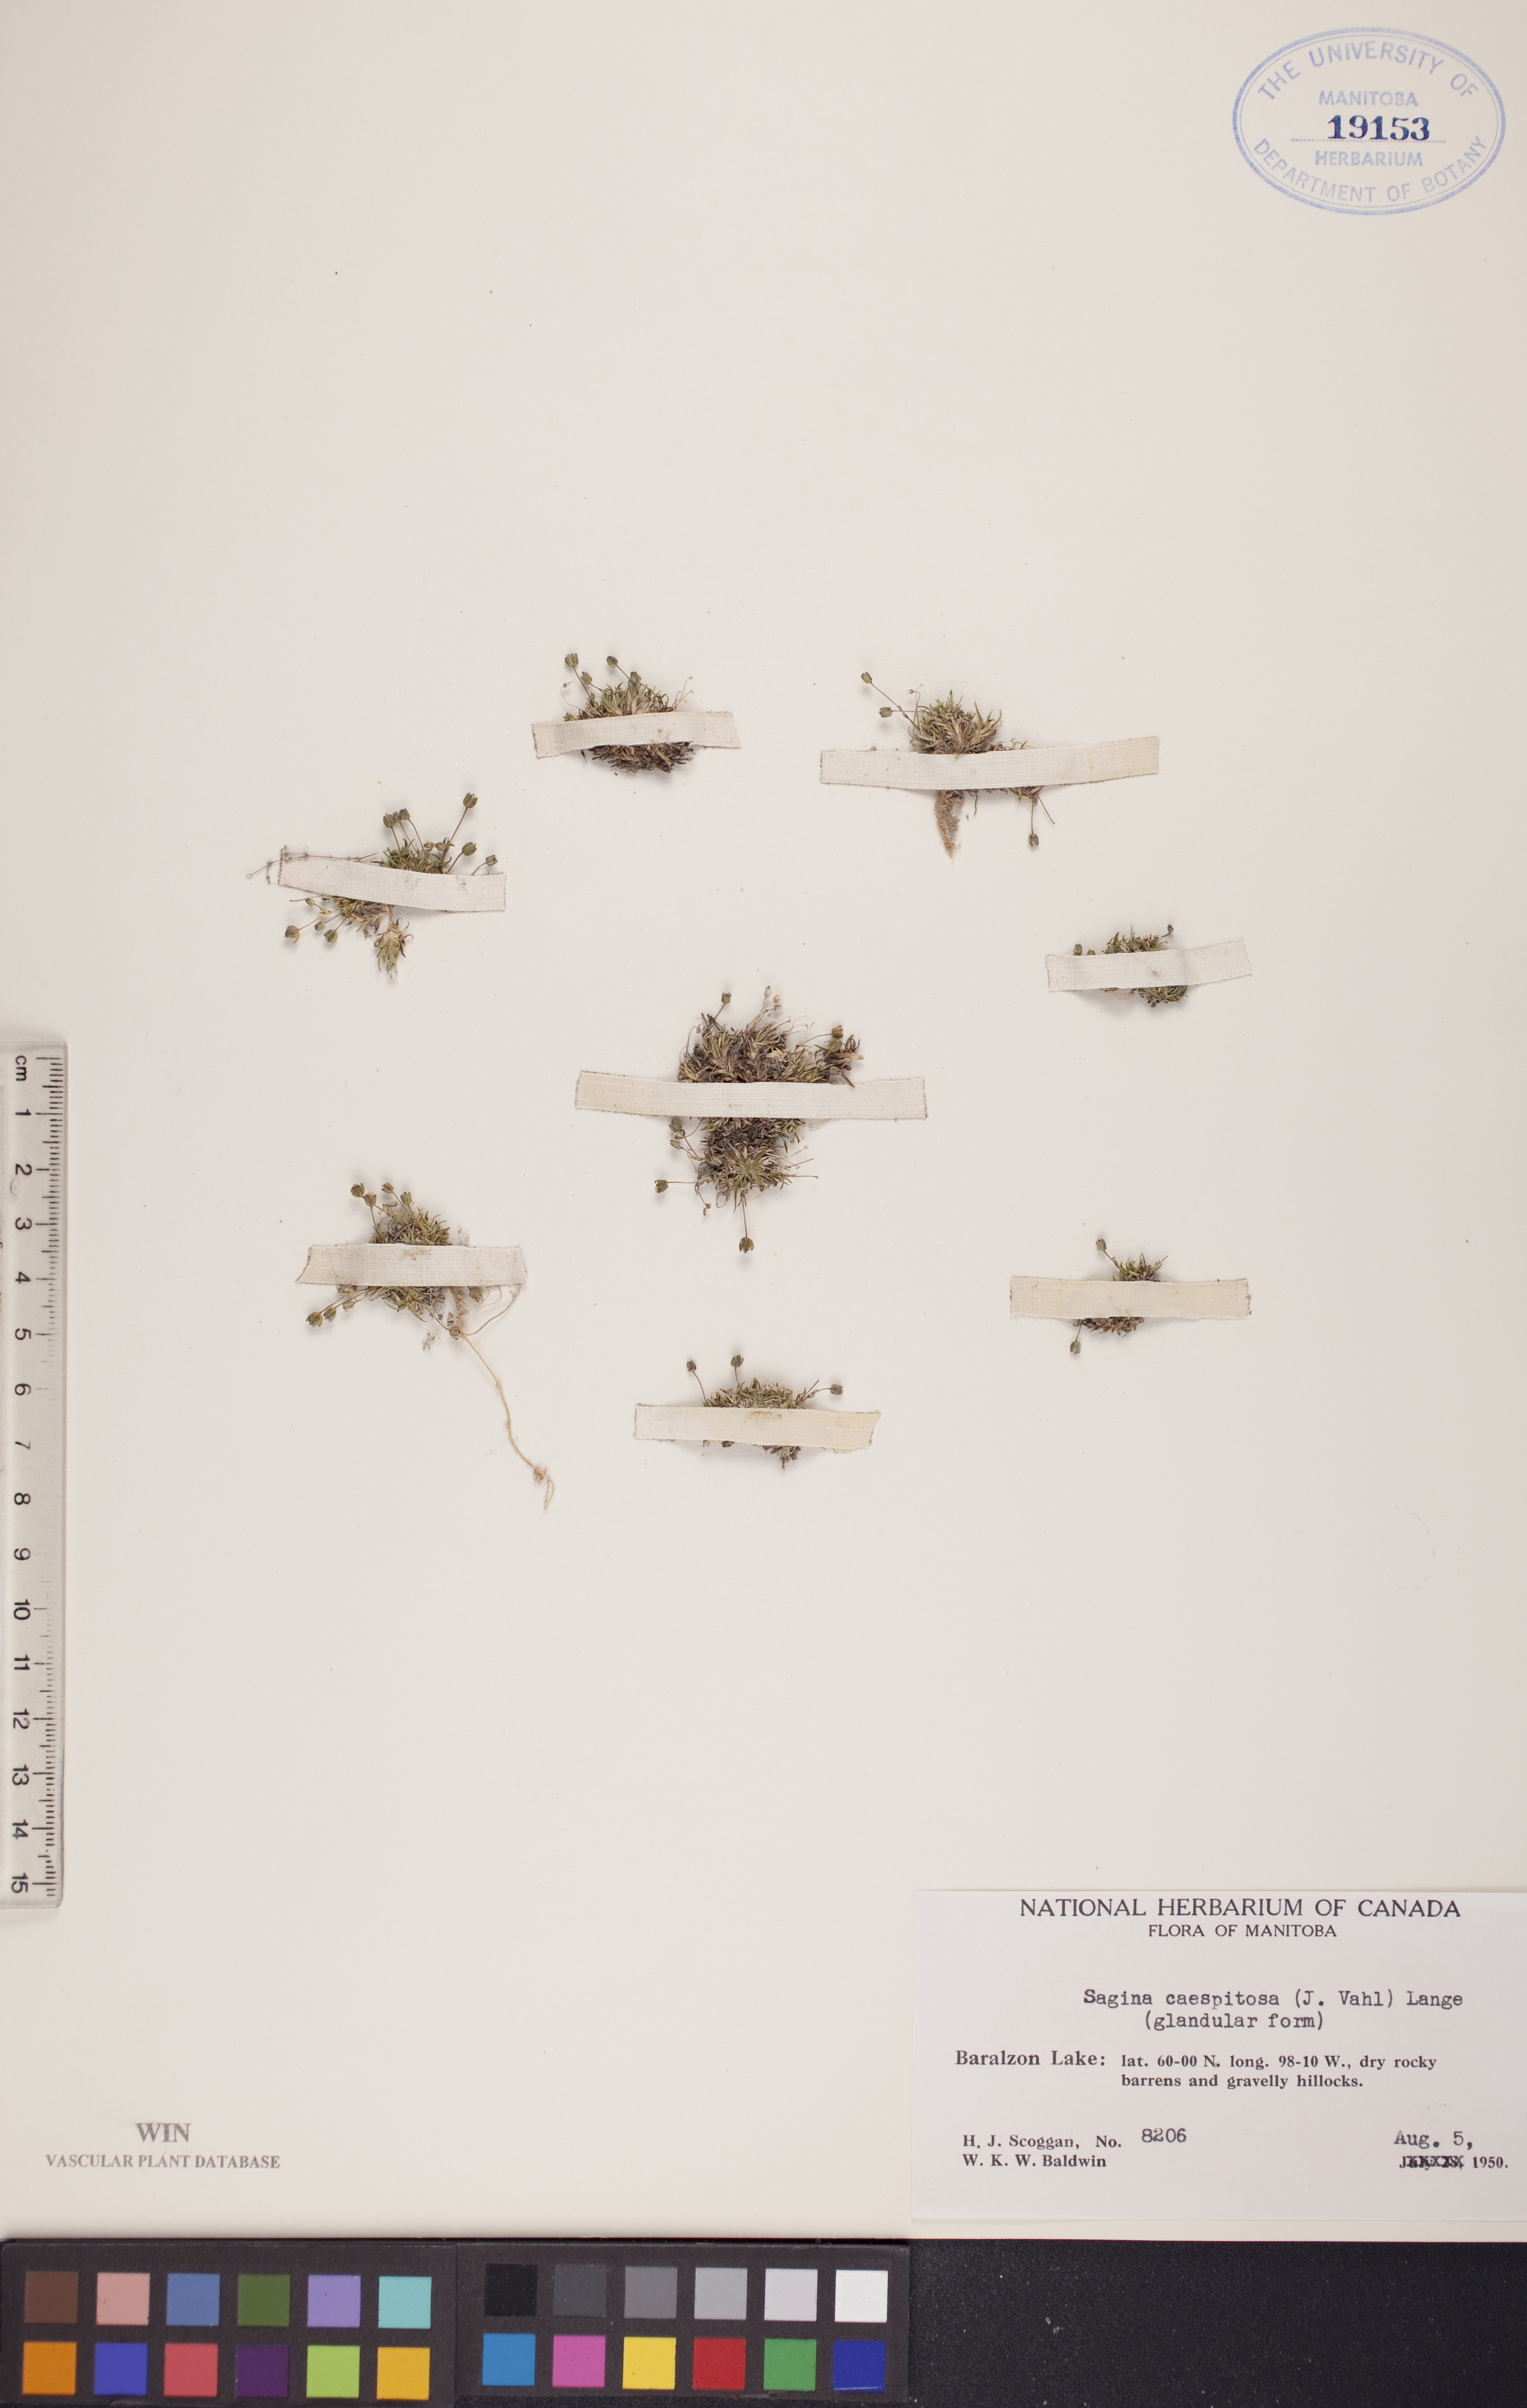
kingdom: Plantae
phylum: Tracheophyta
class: Magnoliopsida
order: Caryophyllales
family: Caryophyllaceae
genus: Sagina
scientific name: Sagina caespitosa
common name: Tufted pearlwort
